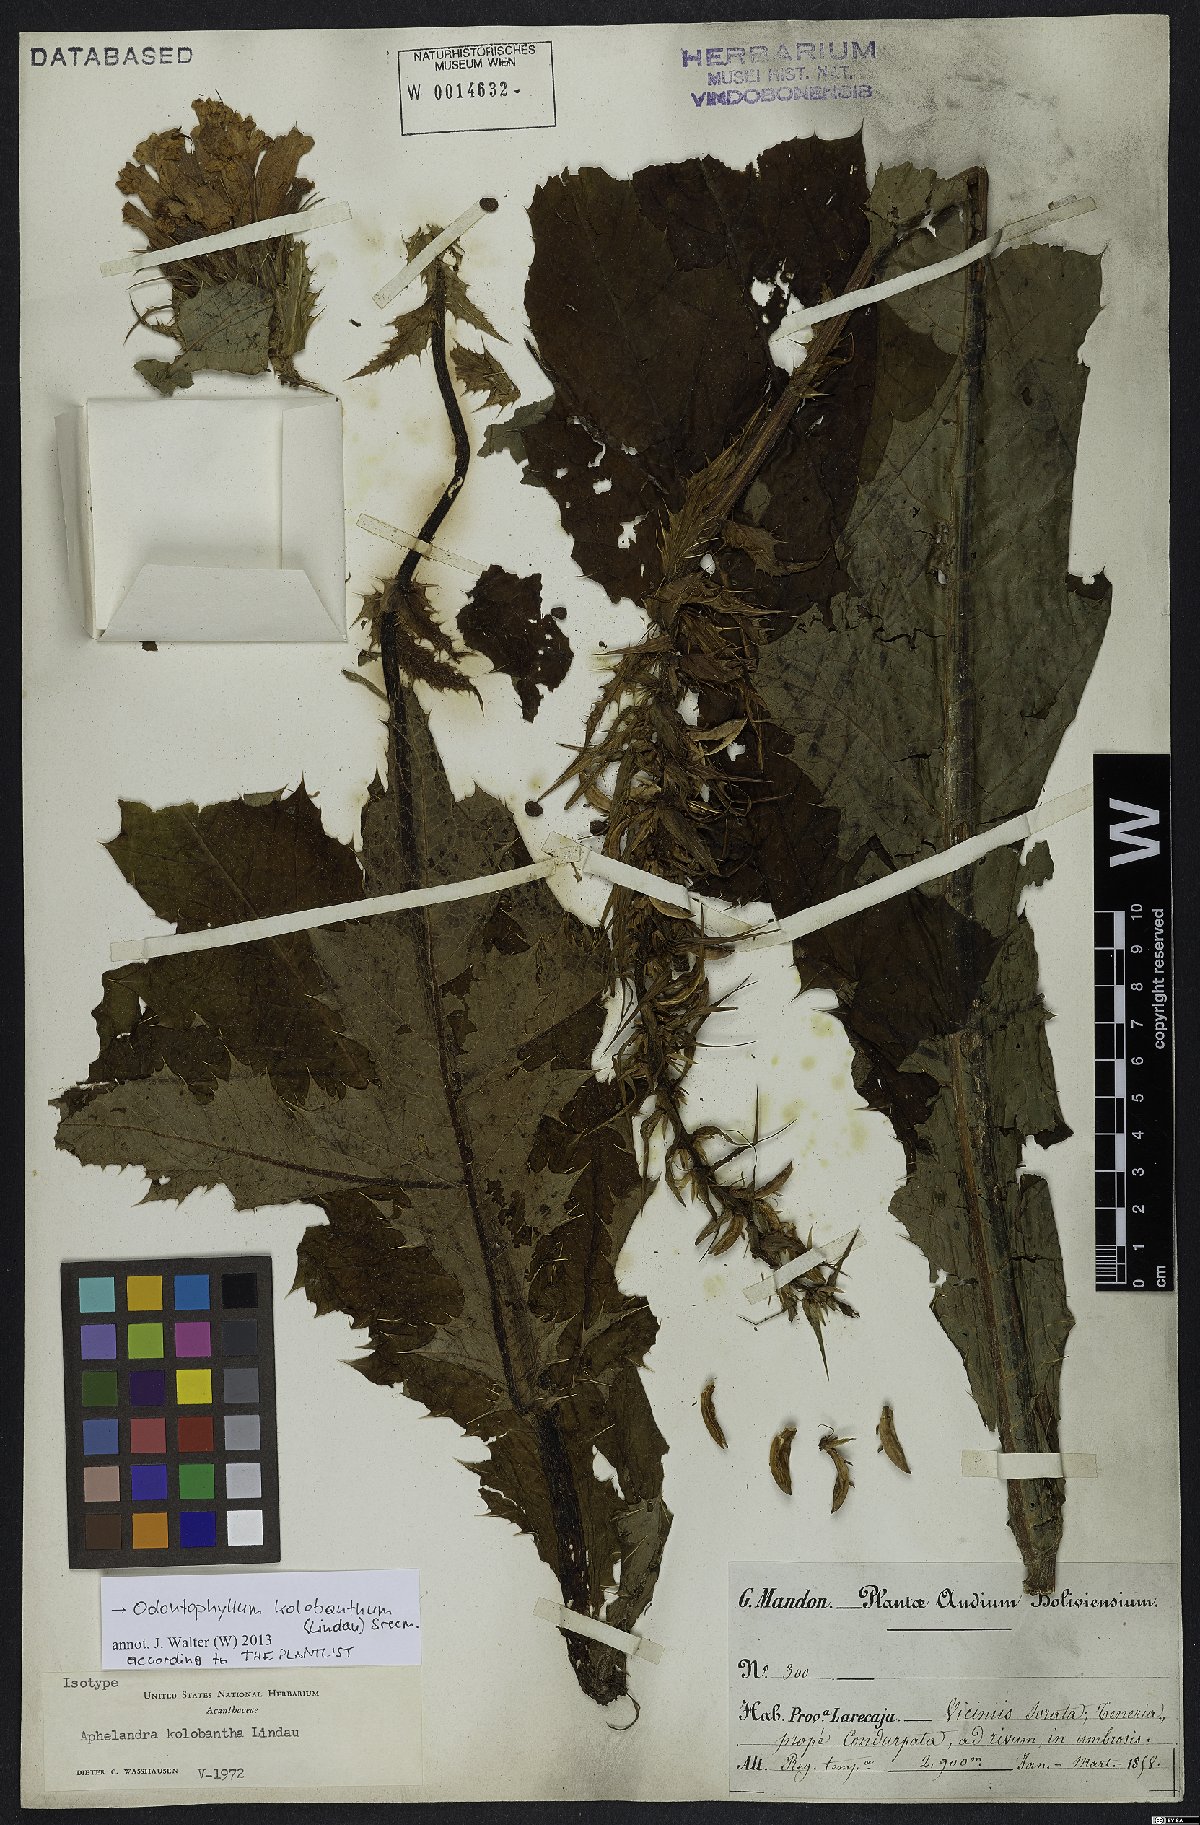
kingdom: Plantae
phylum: Tracheophyta
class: Magnoliopsida
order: Lamiales
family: Acanthaceae
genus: Aphelandra
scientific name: Aphelandra kolobantha
